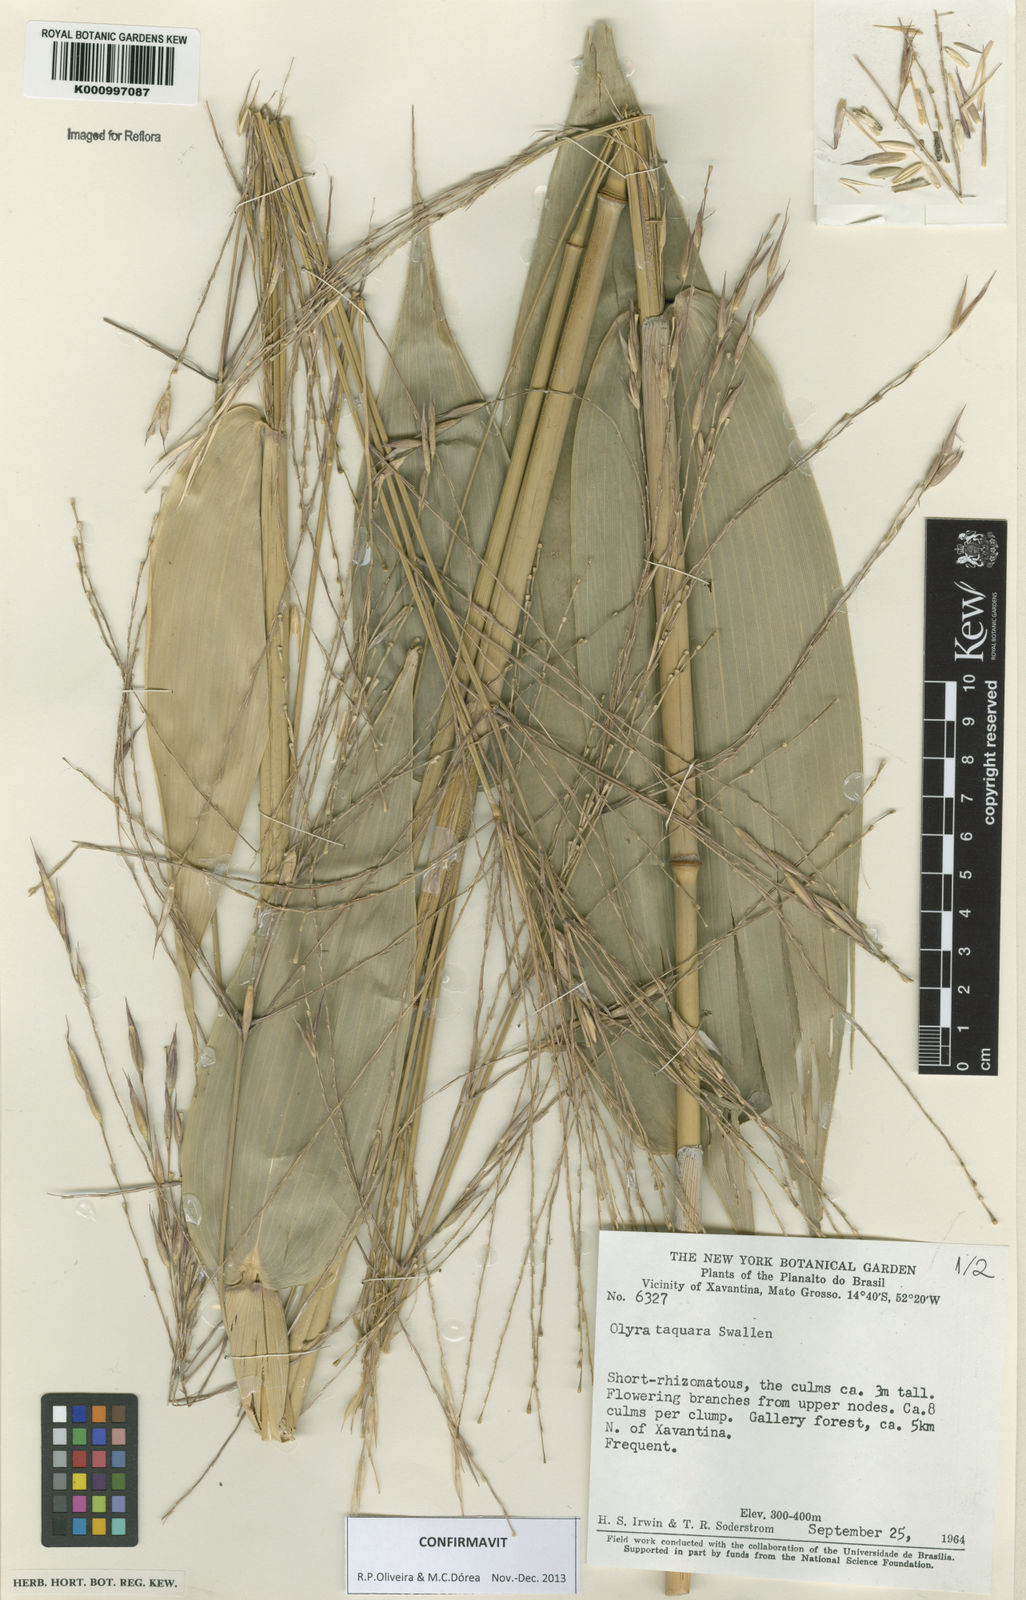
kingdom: Plantae
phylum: Tracheophyta
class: Liliopsida
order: Poales
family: Poaceae
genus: Olyra
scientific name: Olyra taquara
